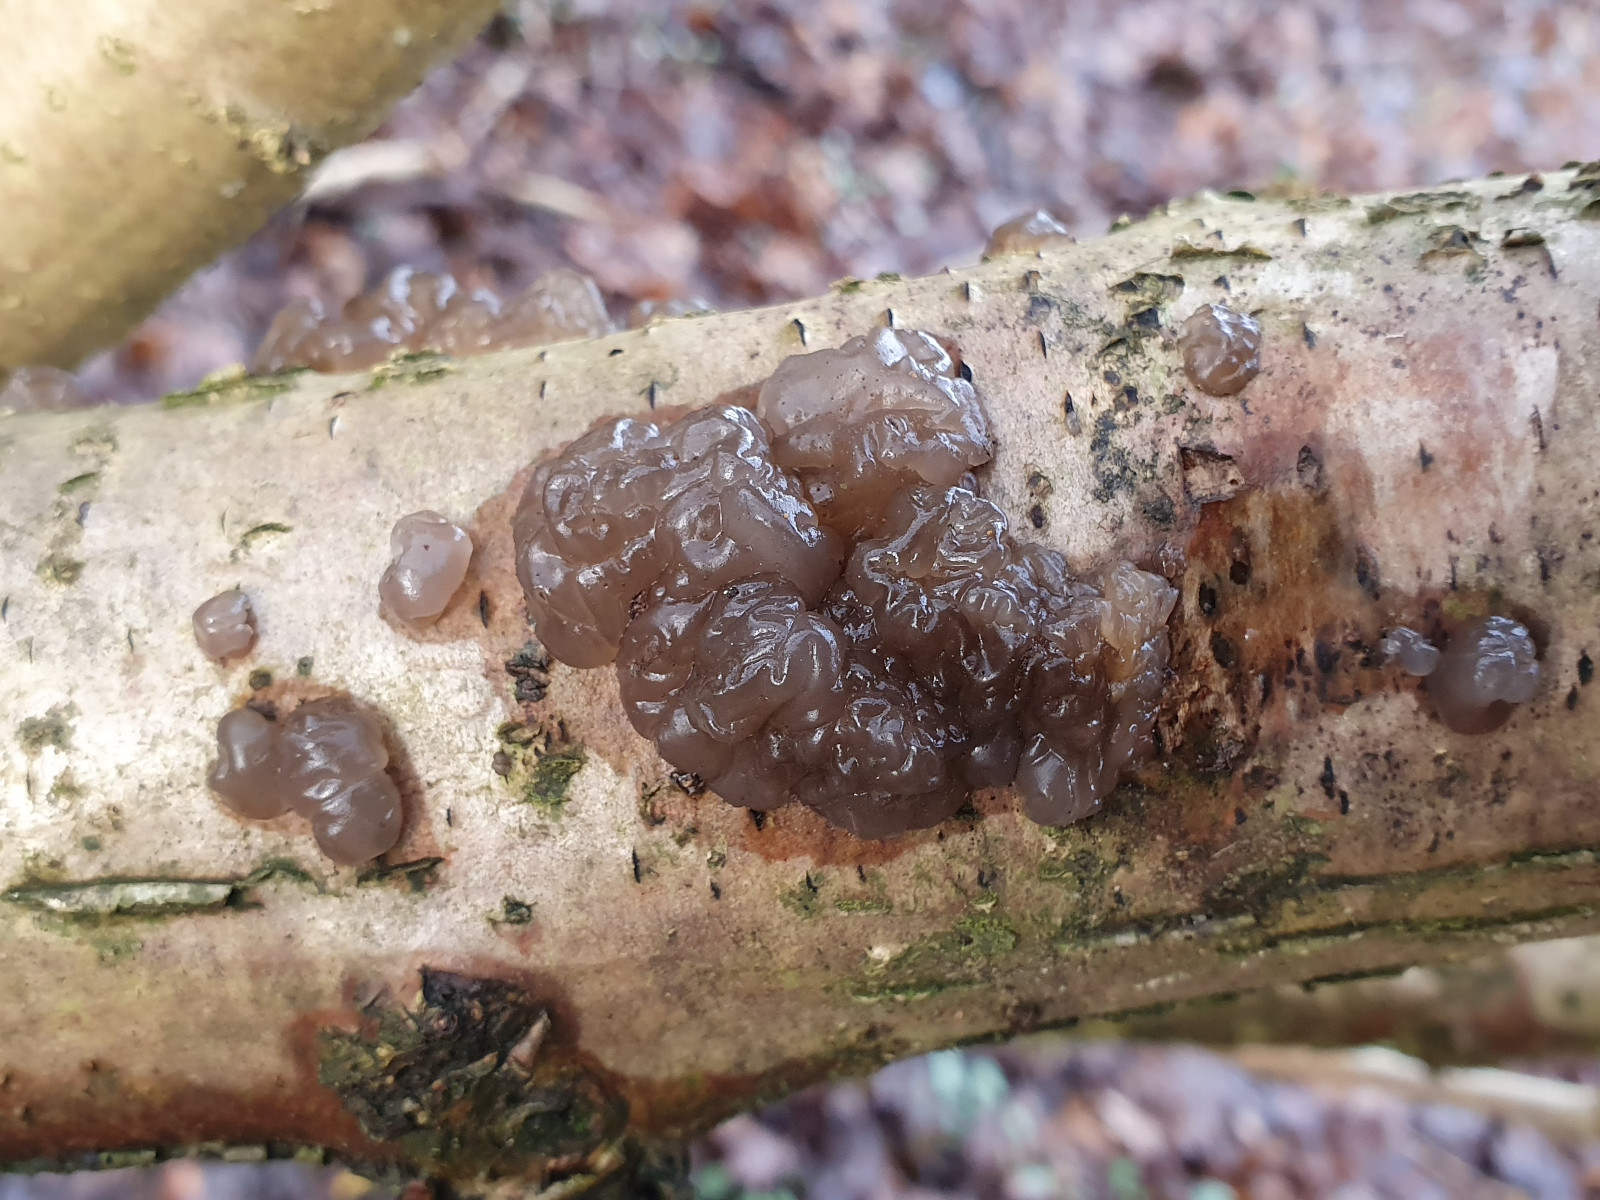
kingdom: Fungi
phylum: Basidiomycota
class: Agaricomycetes
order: Auriculariales
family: Auriculariaceae
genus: Exidia
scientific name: Exidia nigricans
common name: almindelig bævretop
